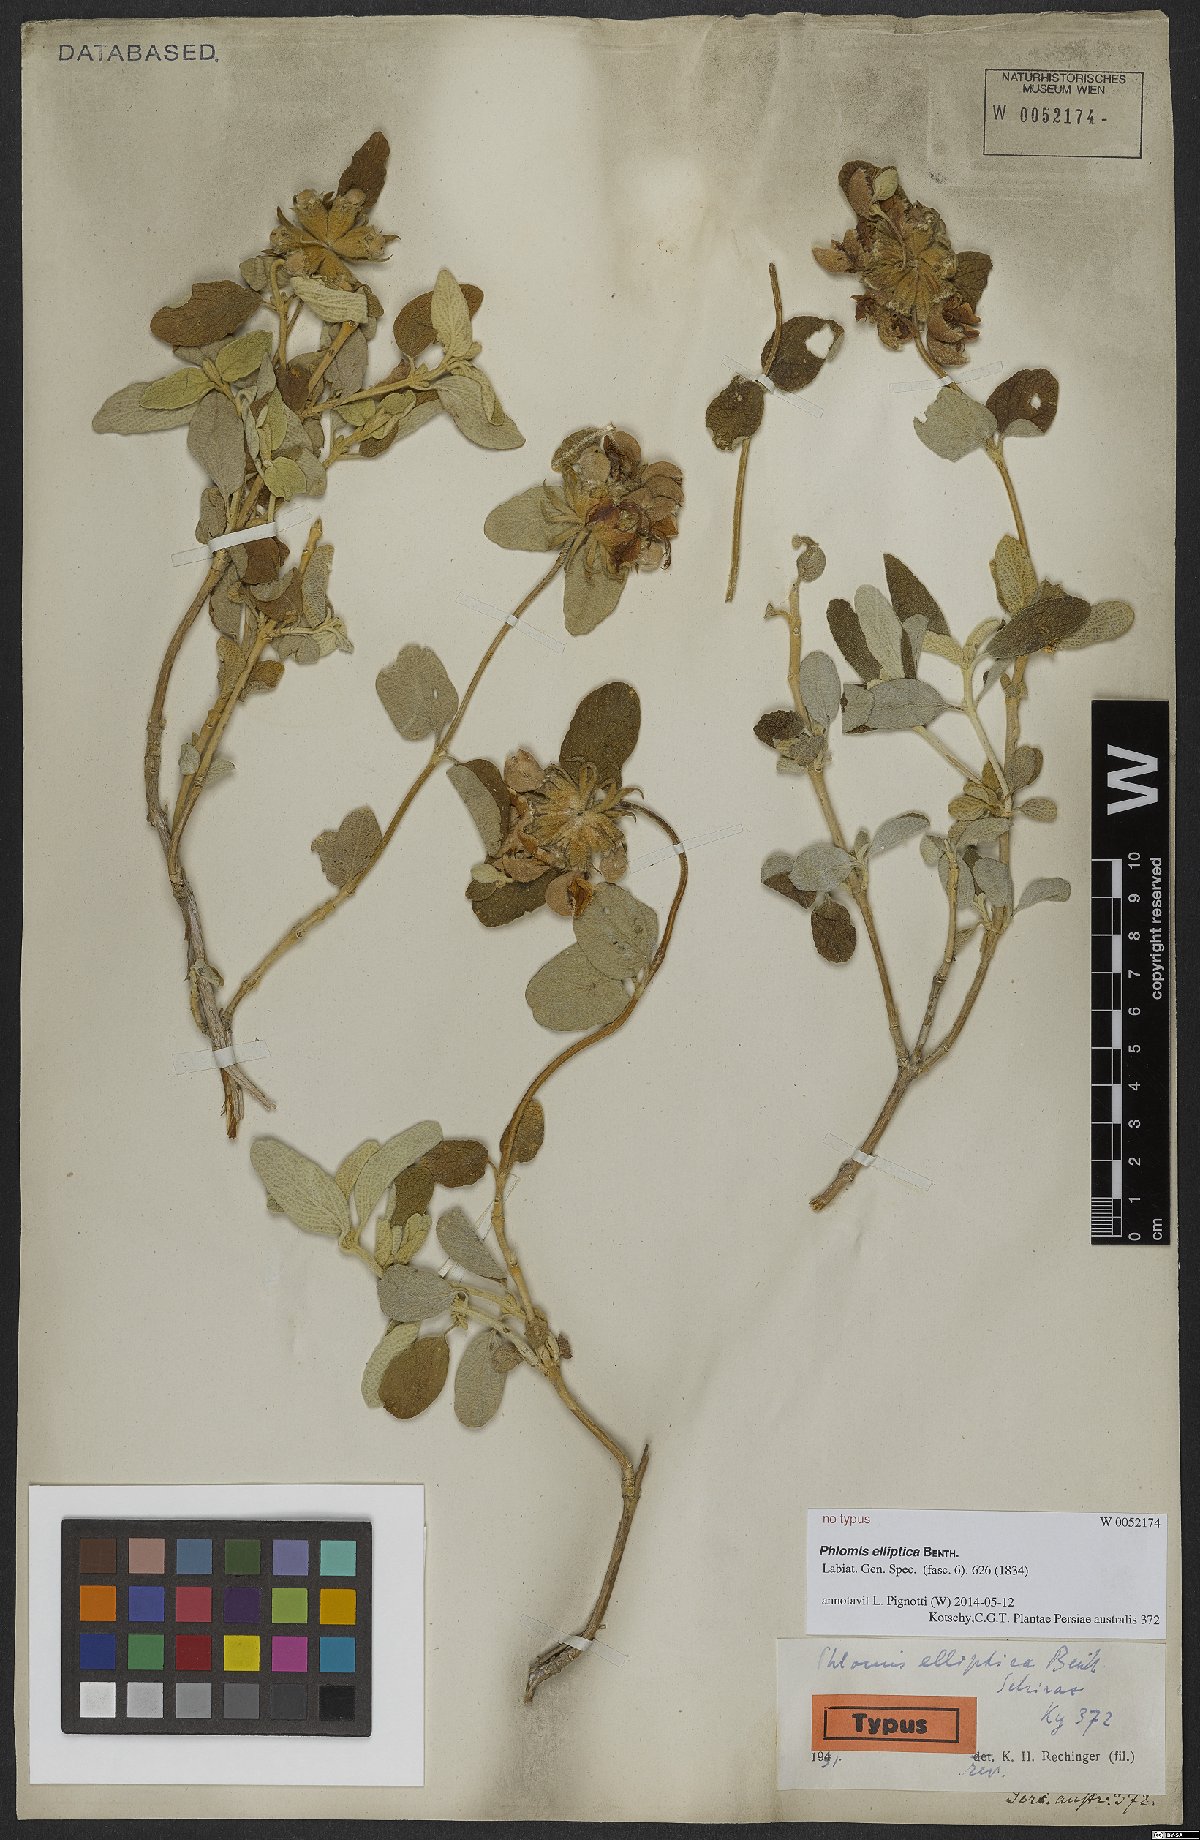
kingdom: Plantae
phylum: Tracheophyta
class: Magnoliopsida
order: Lamiales
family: Lamiaceae
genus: Phlomis
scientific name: Phlomis elliptica
